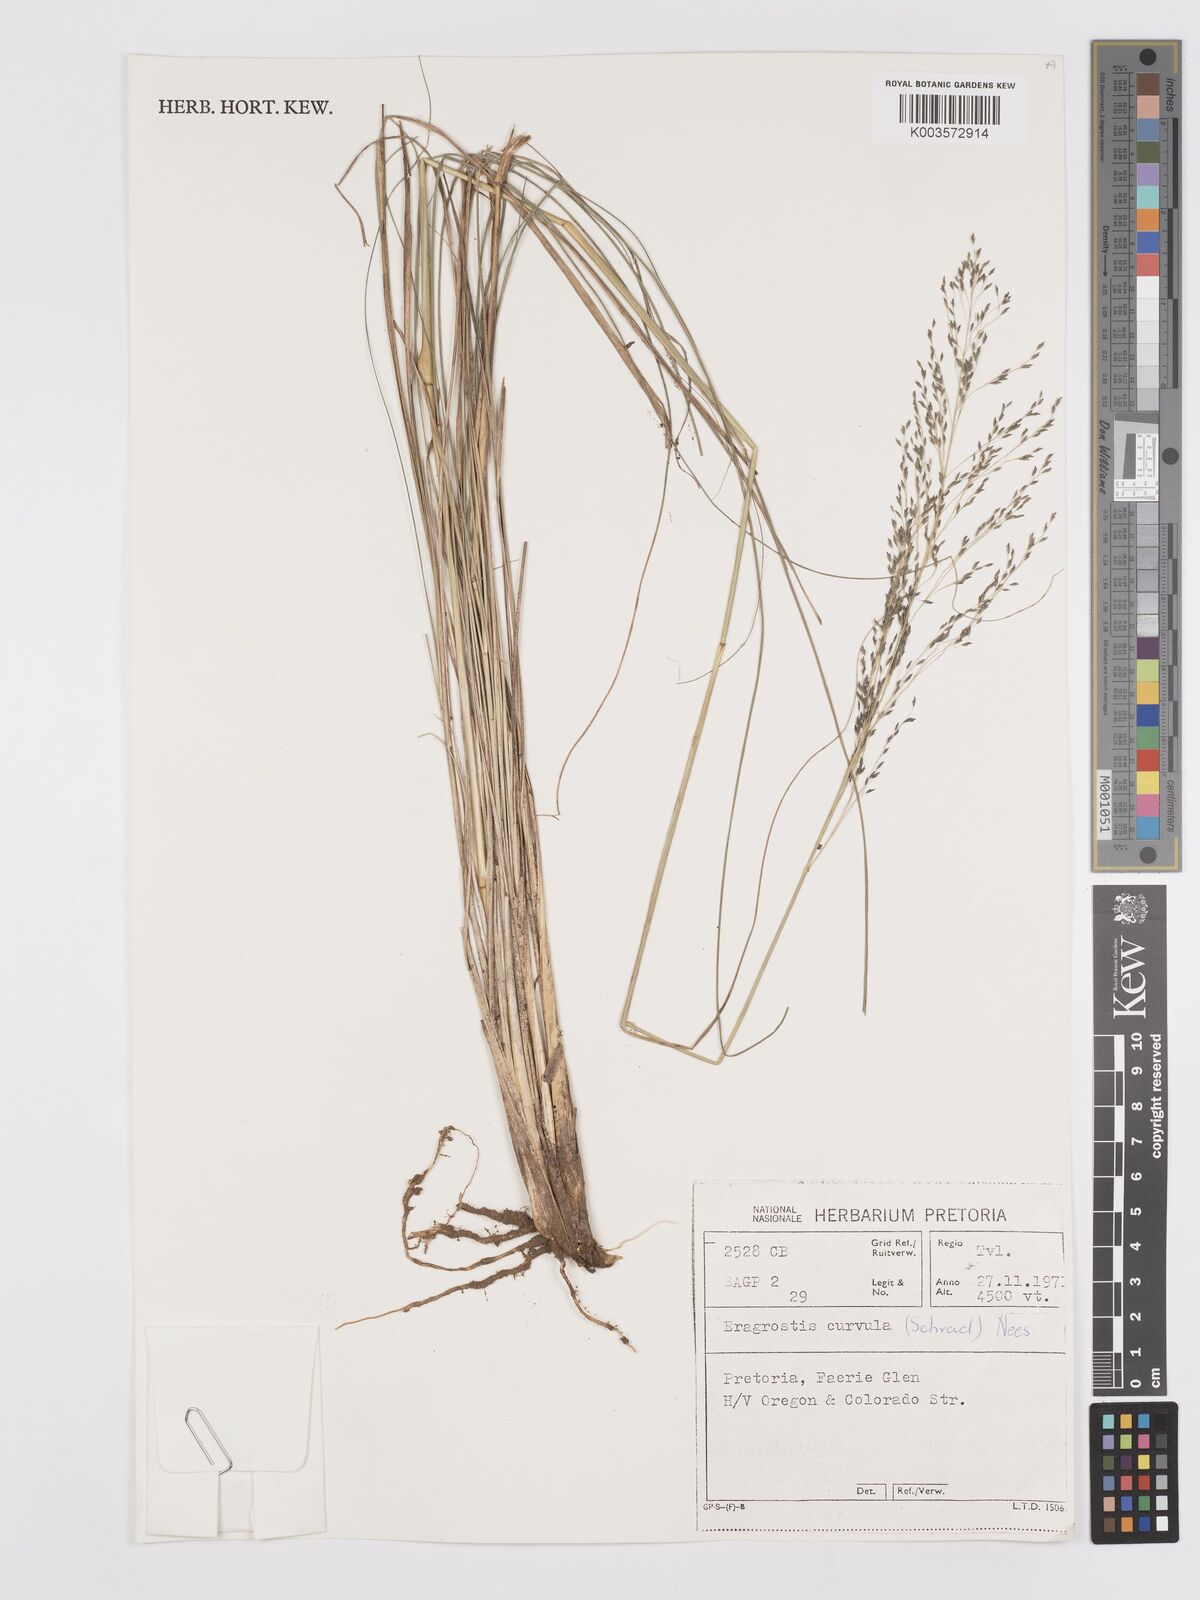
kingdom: Plantae
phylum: Tracheophyta
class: Liliopsida
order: Poales
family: Poaceae
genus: Eragrostis
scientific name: Eragrostis curvula
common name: African love-grass
